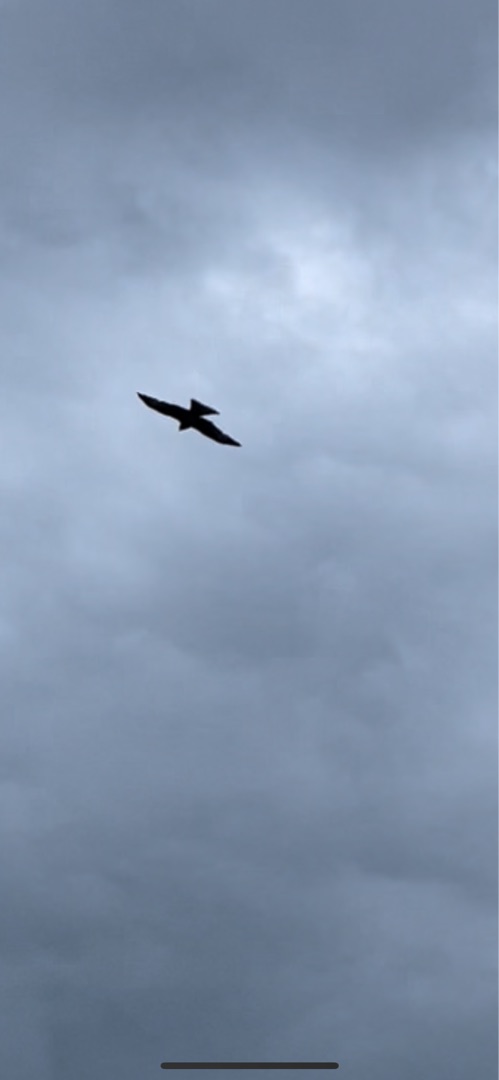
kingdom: Animalia
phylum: Chordata
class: Aves
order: Accipitriformes
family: Accipitridae
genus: Milvus
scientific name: Milvus milvus
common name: Rød glente
